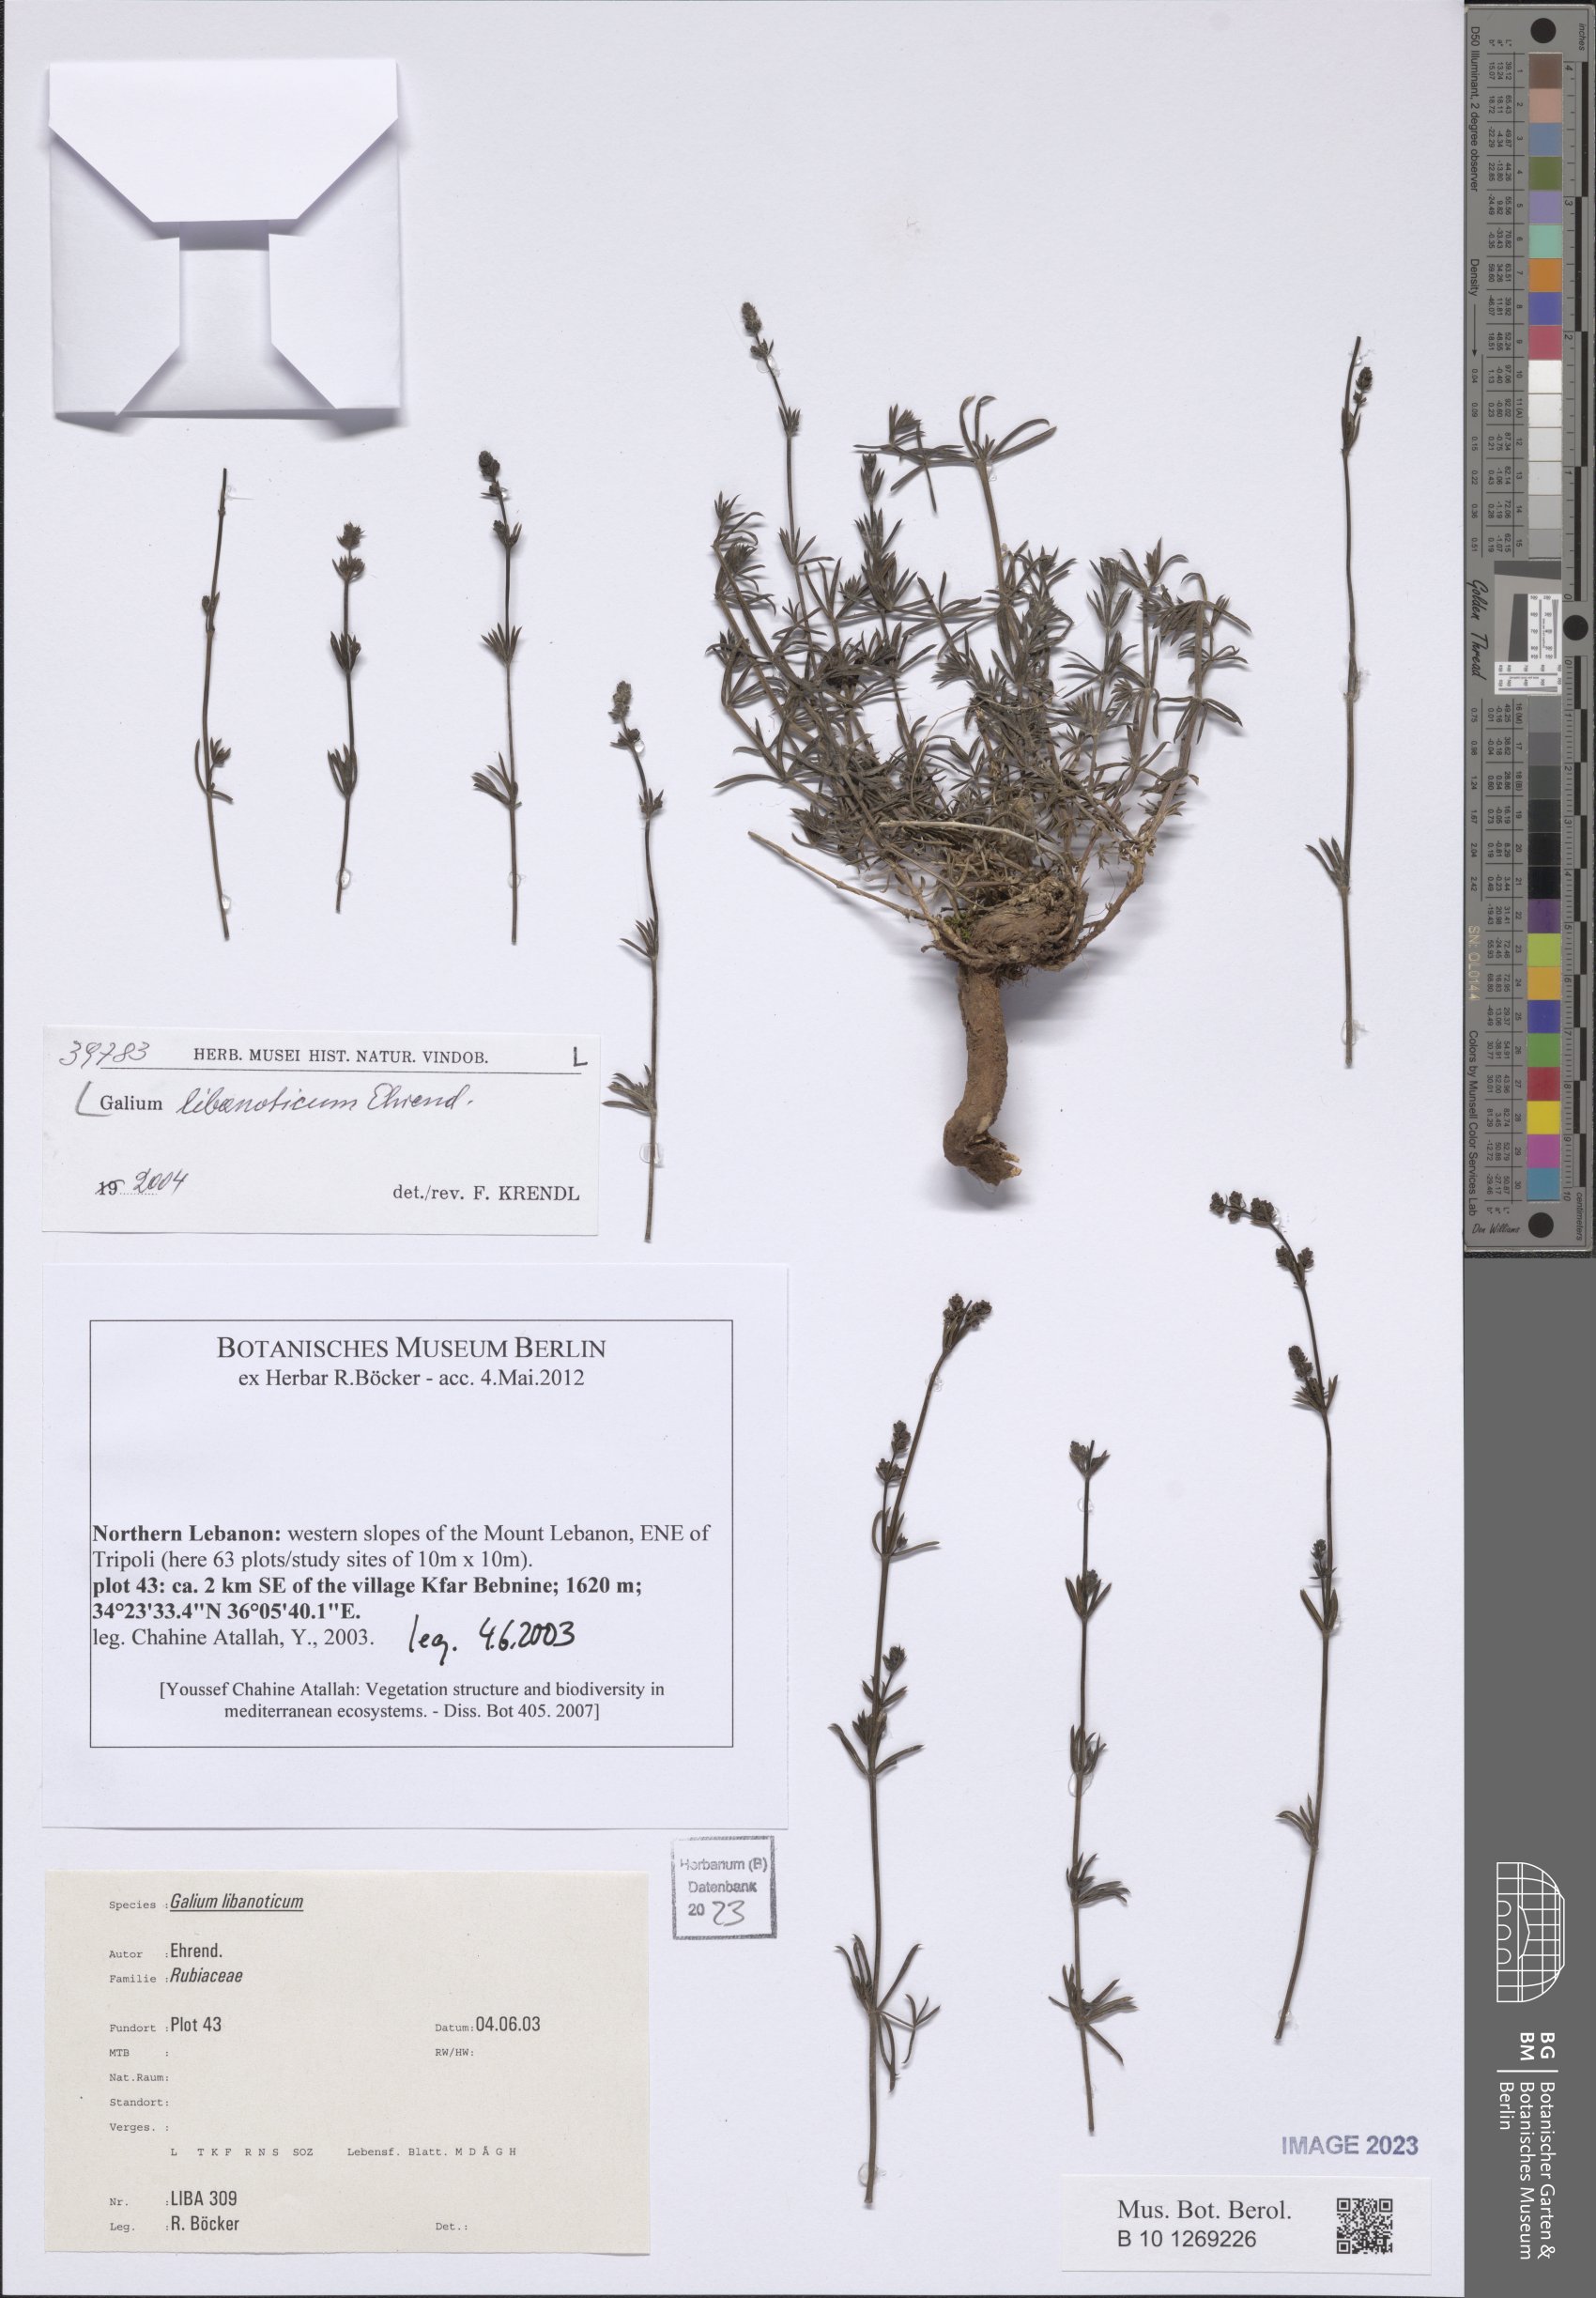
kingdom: Plantae
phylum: Tracheophyta
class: Magnoliopsida
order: Gentianales
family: Rubiaceae
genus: Galium
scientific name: Galium libanoticum
